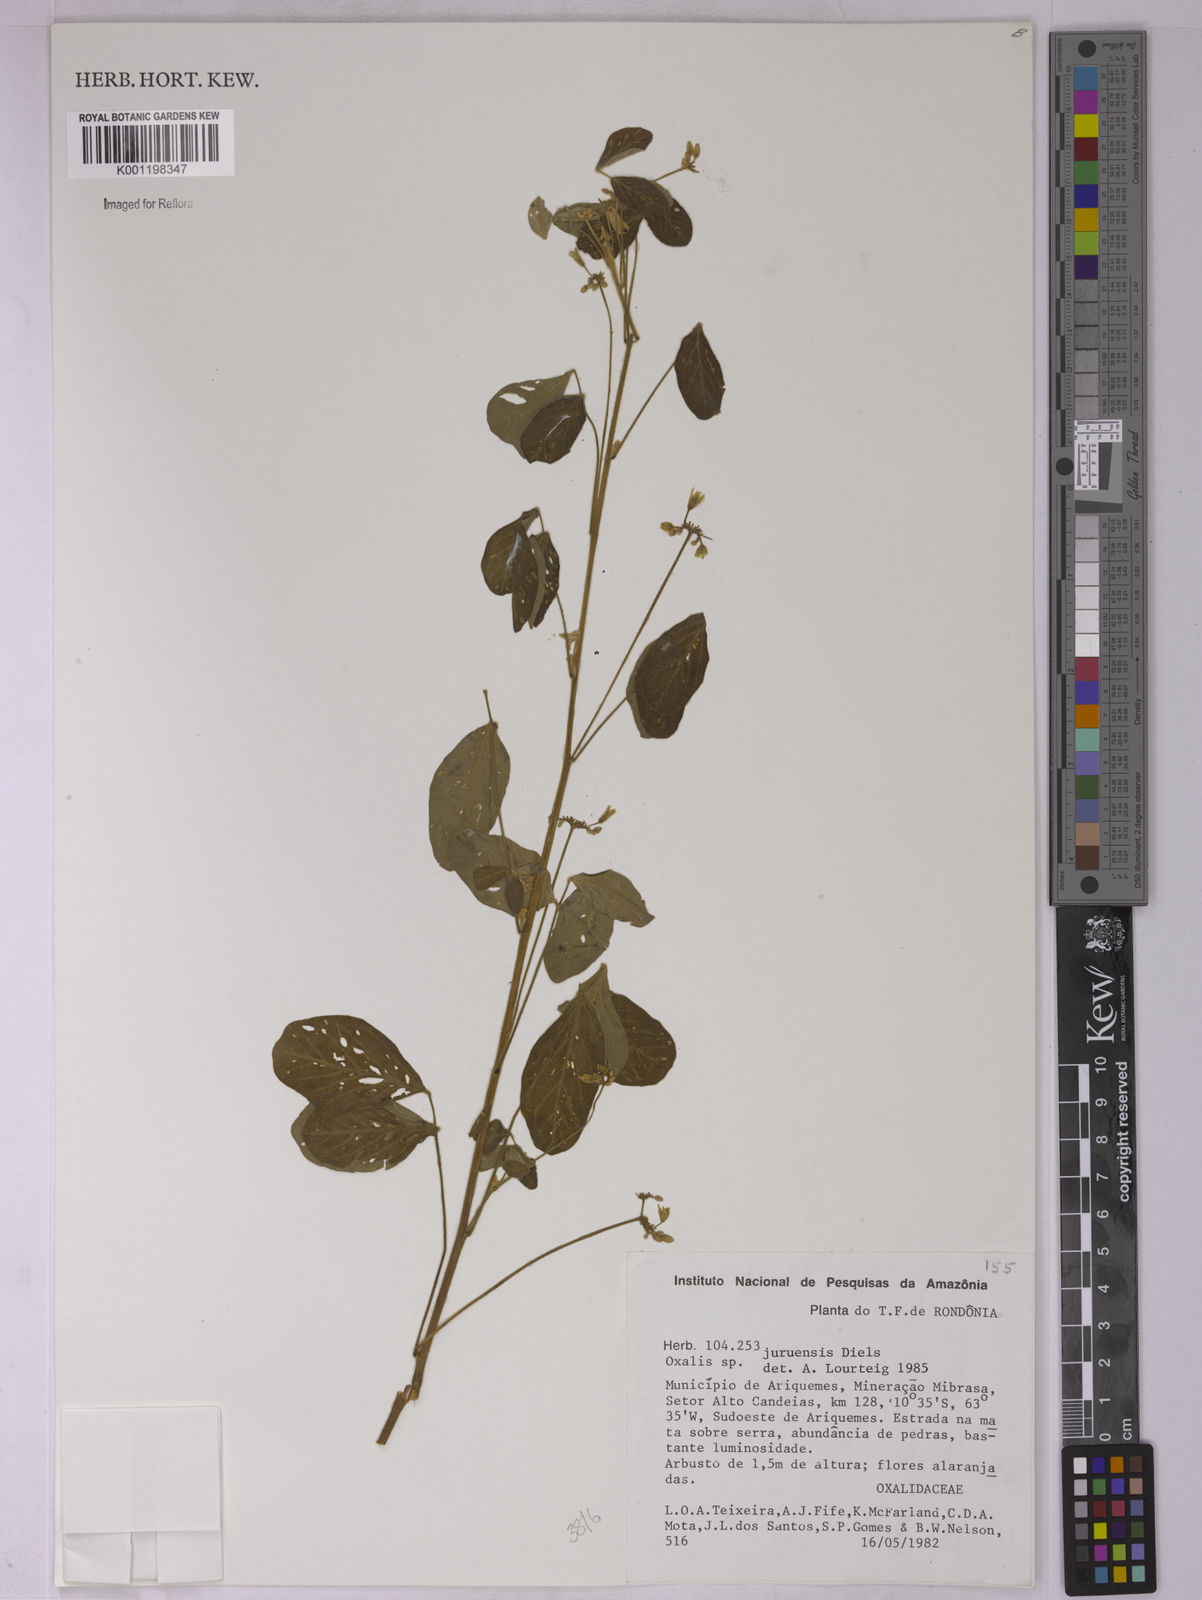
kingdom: Plantae
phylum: Tracheophyta
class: Magnoliopsida
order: Oxalidales
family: Oxalidaceae
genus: Oxalis
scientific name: Oxalis juruensis
